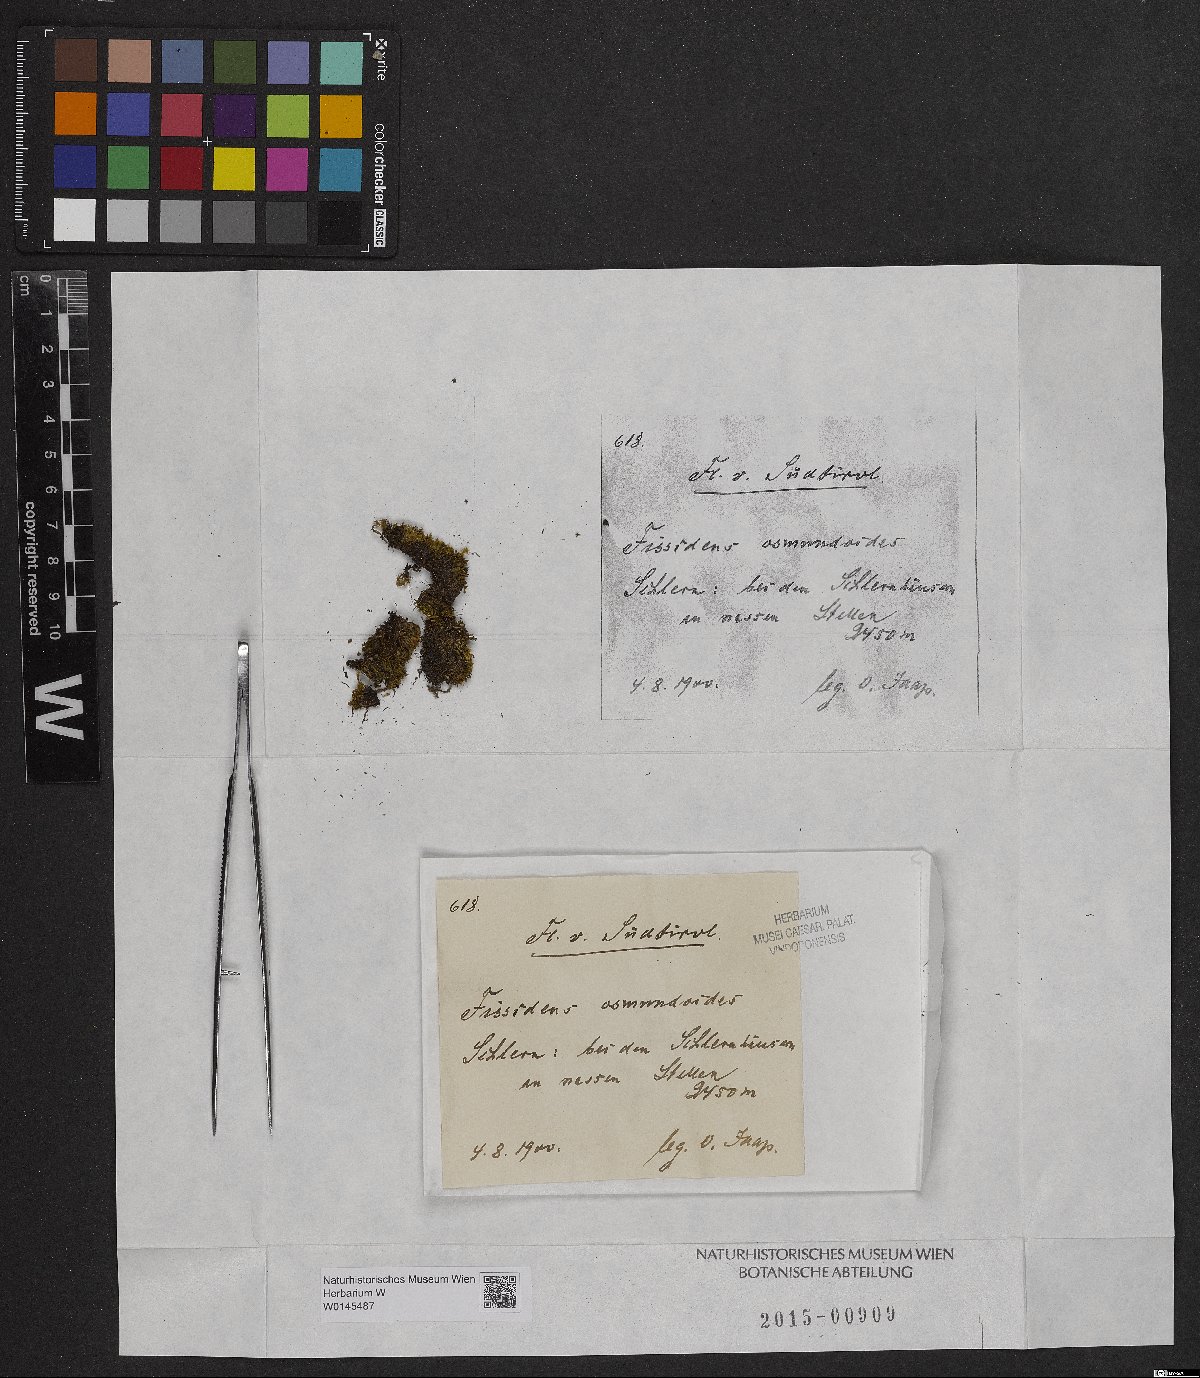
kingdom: Plantae
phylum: Bryophyta
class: Bryopsida
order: Dicranales
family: Fissidentaceae
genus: Fissidens
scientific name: Fissidens osmundoides
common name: Purple-stalked pocket moss
